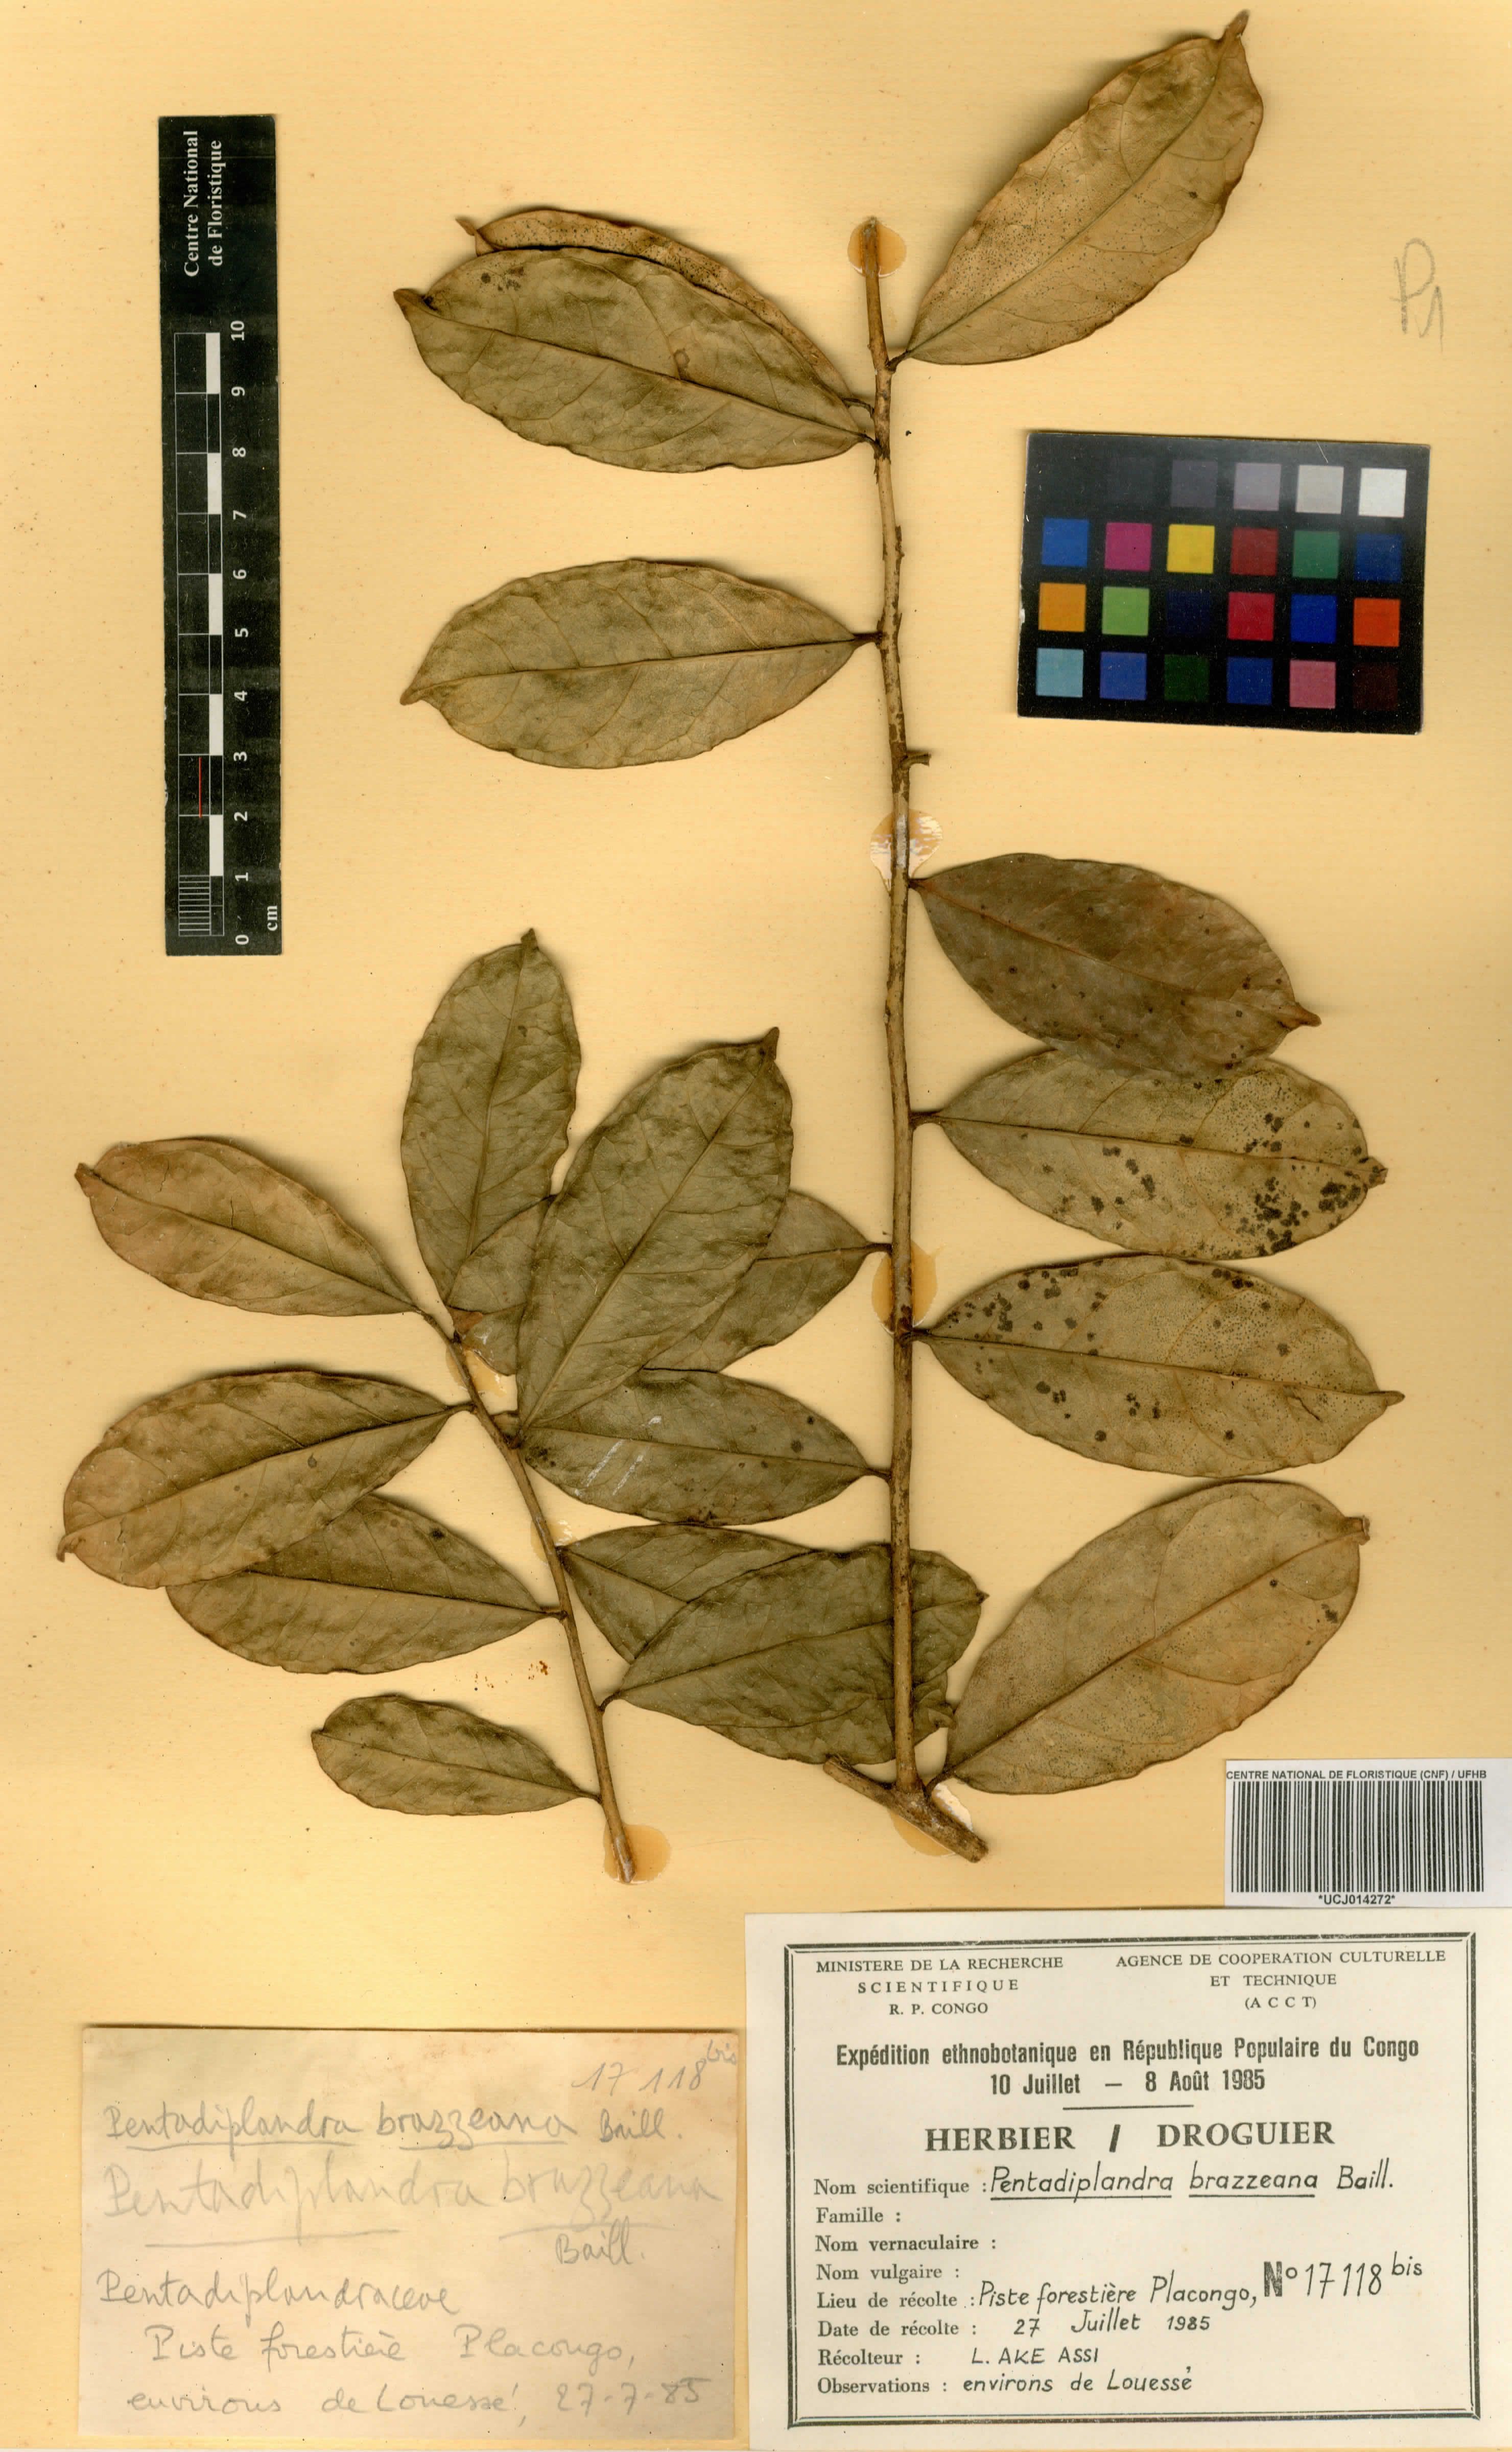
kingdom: Plantae
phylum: Tracheophyta
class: Magnoliopsida
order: Lamiales
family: Pedaliaceae
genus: Sesamum
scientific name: Sesamum radiatum
